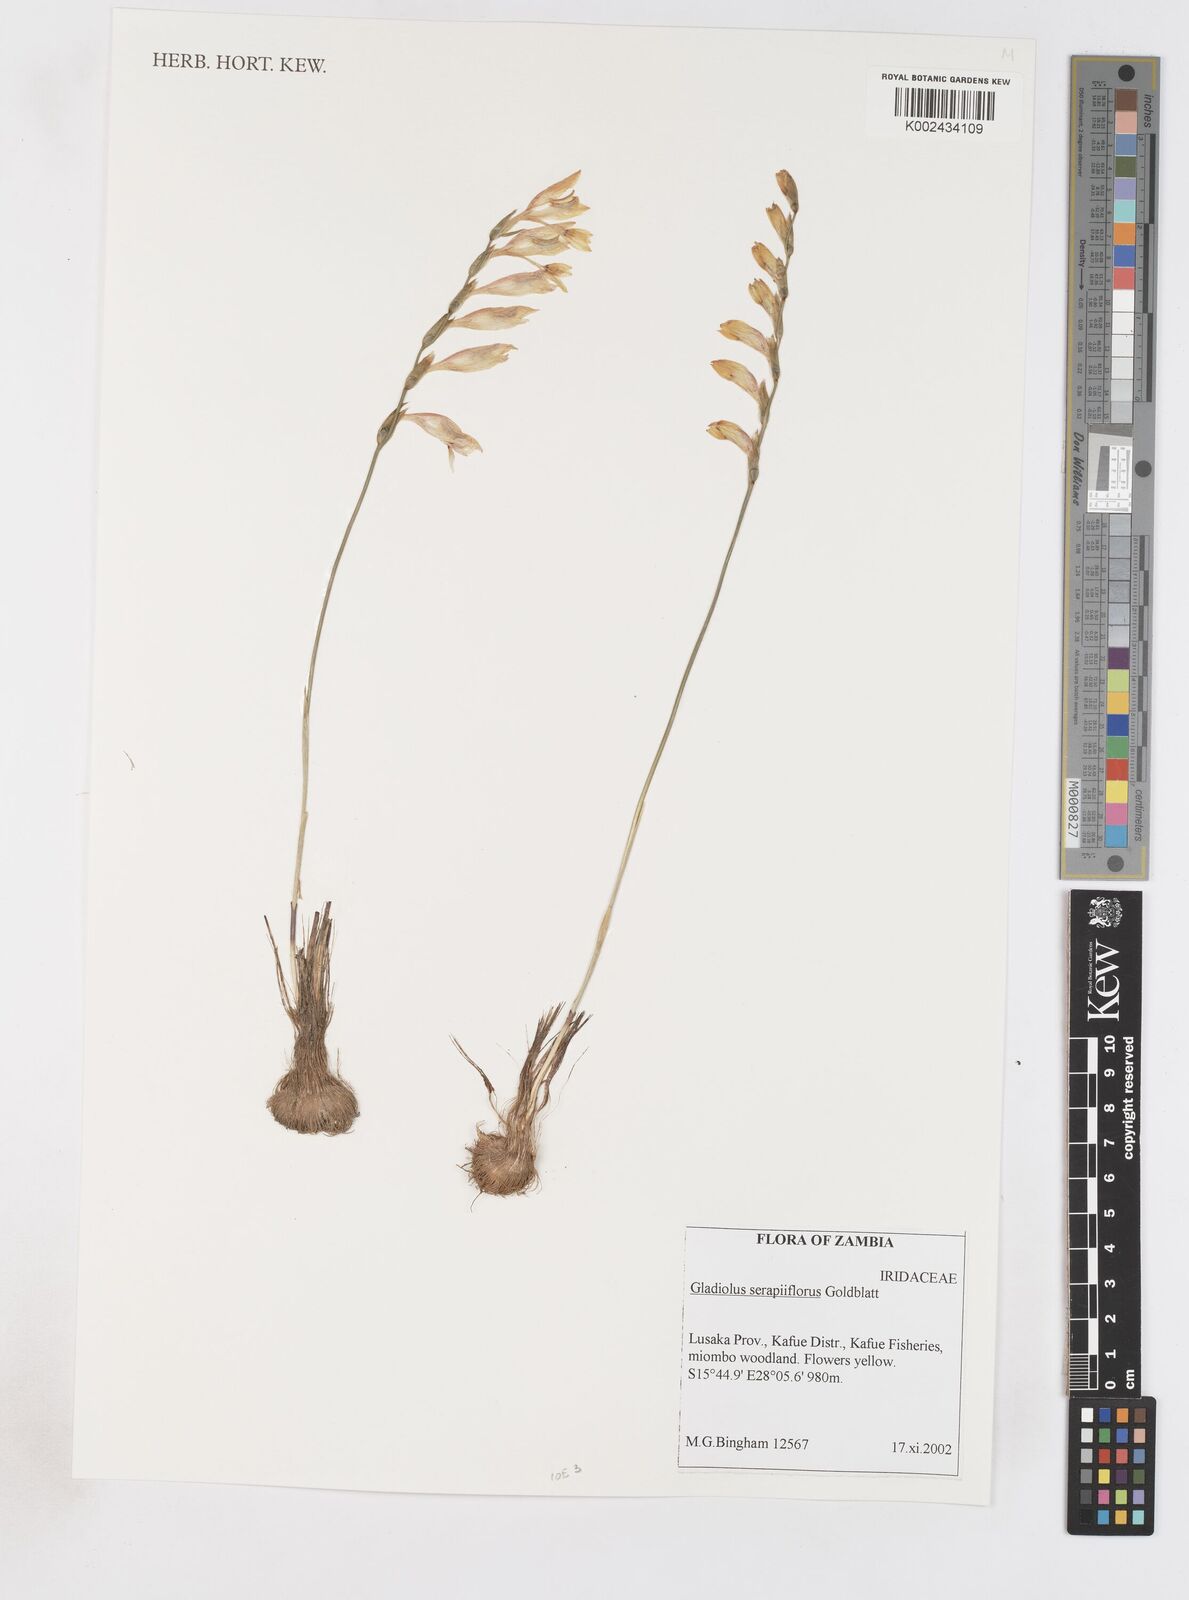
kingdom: Plantae
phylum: Tracheophyta
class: Liliopsida
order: Asparagales
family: Iridaceae
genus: Gladiolus
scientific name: Gladiolus serapiiflorus
